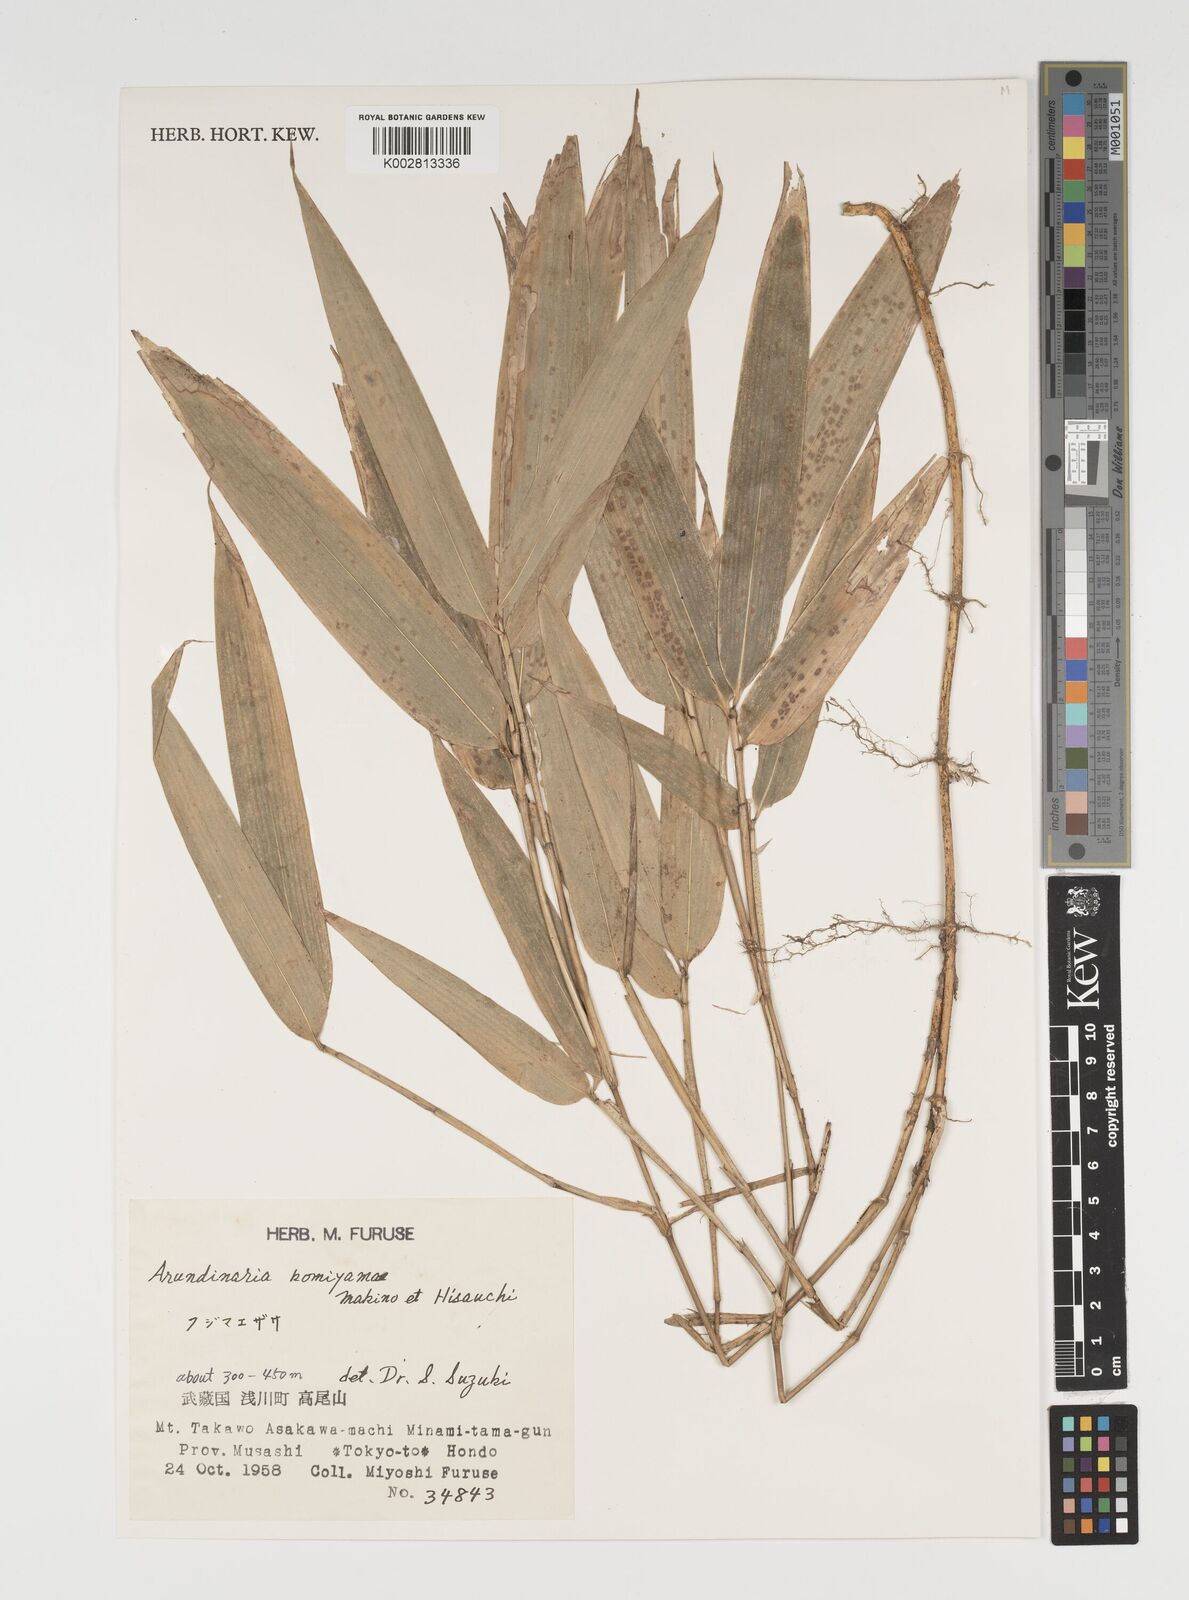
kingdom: Plantae
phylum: Tracheophyta
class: Liliopsida
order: Poales
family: Poaceae
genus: Sasa
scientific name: Sasa shimidzuana
